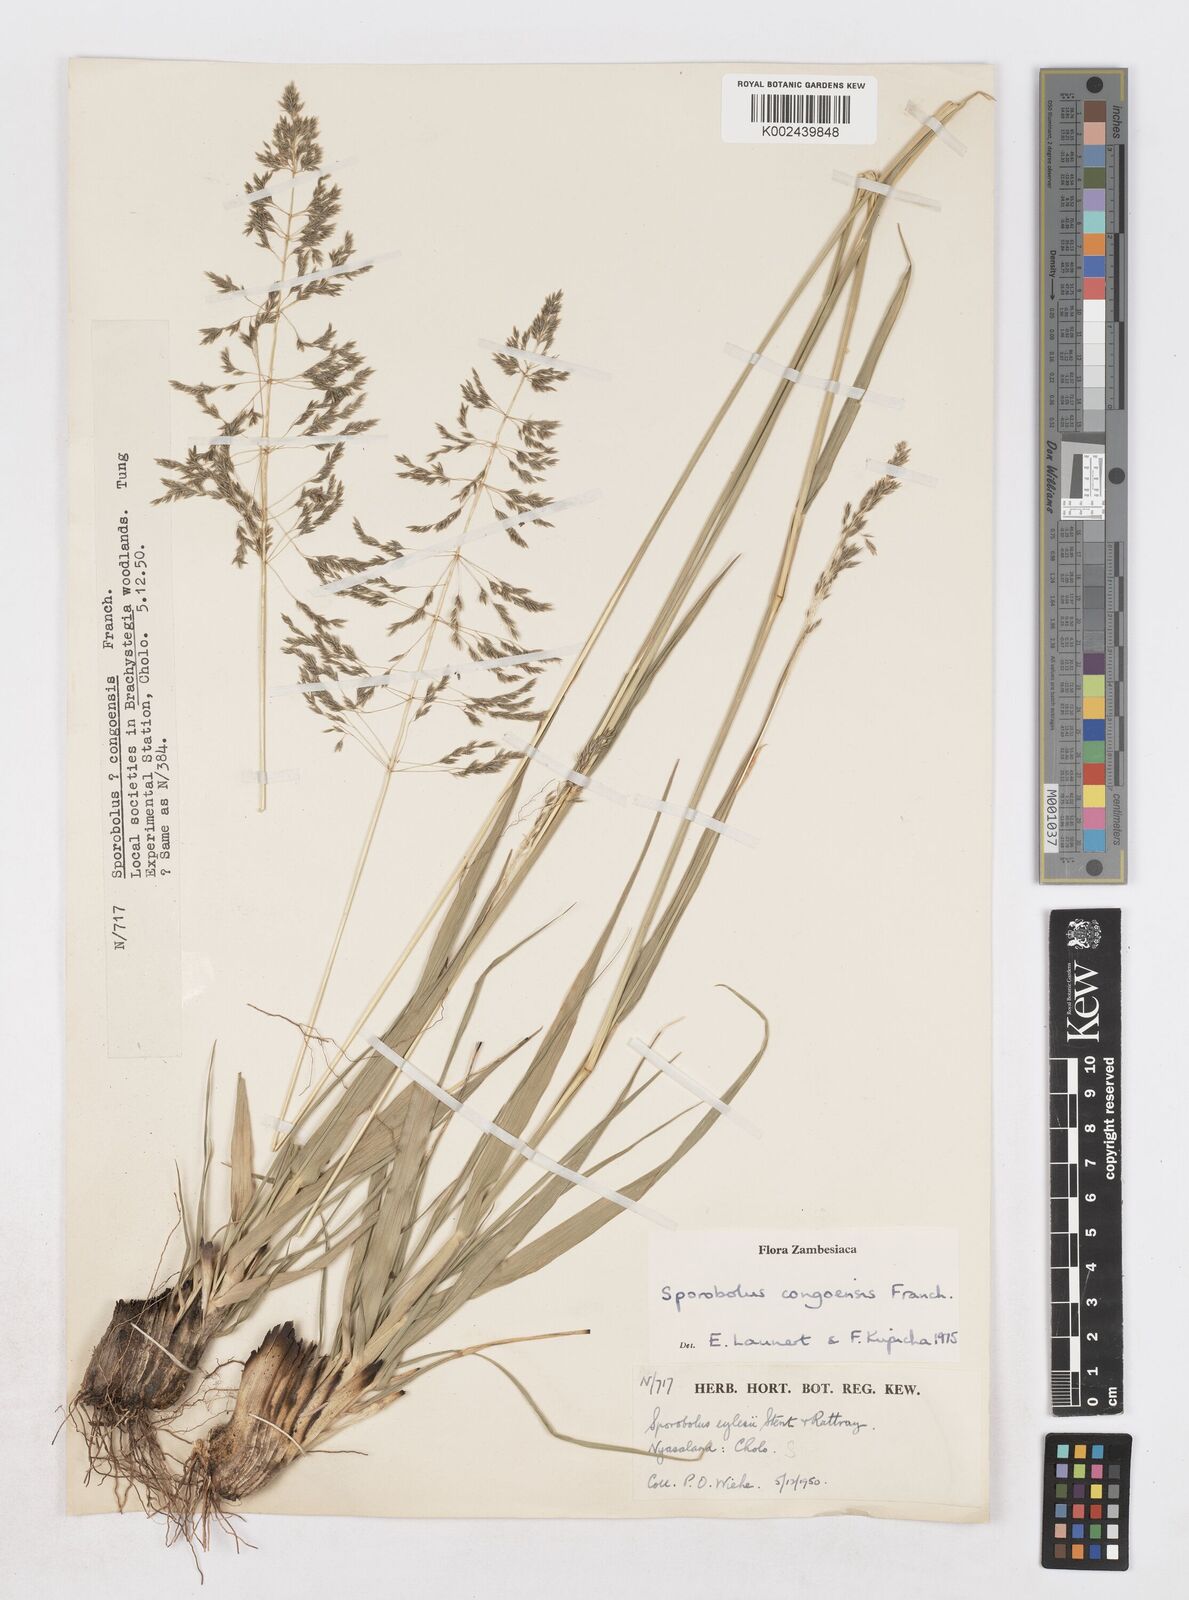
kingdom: Plantae
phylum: Tracheophyta
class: Liliopsida
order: Poales
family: Poaceae
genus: Sporobolus
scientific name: Sporobolus congoensis
